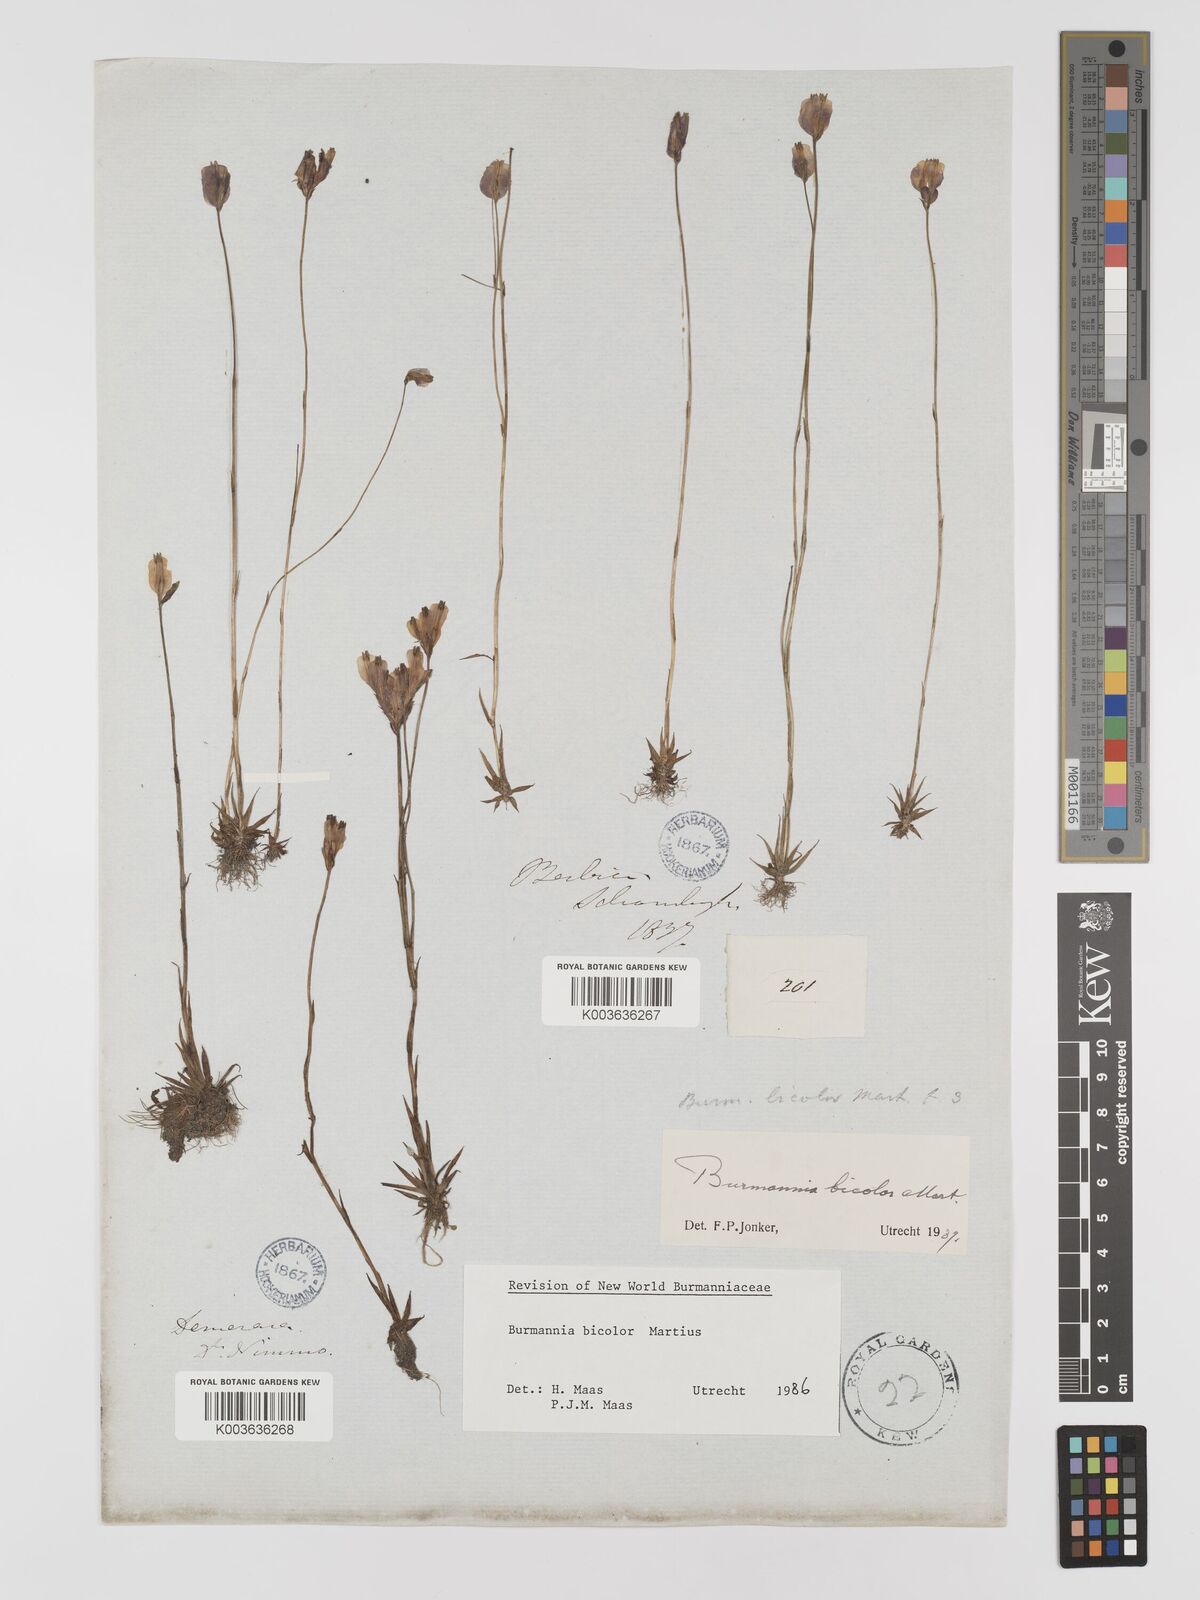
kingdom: Plantae
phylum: Tracheophyta
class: Liliopsida
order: Dioscoreales
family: Burmanniaceae
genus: Burmannia
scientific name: Burmannia bicolor
